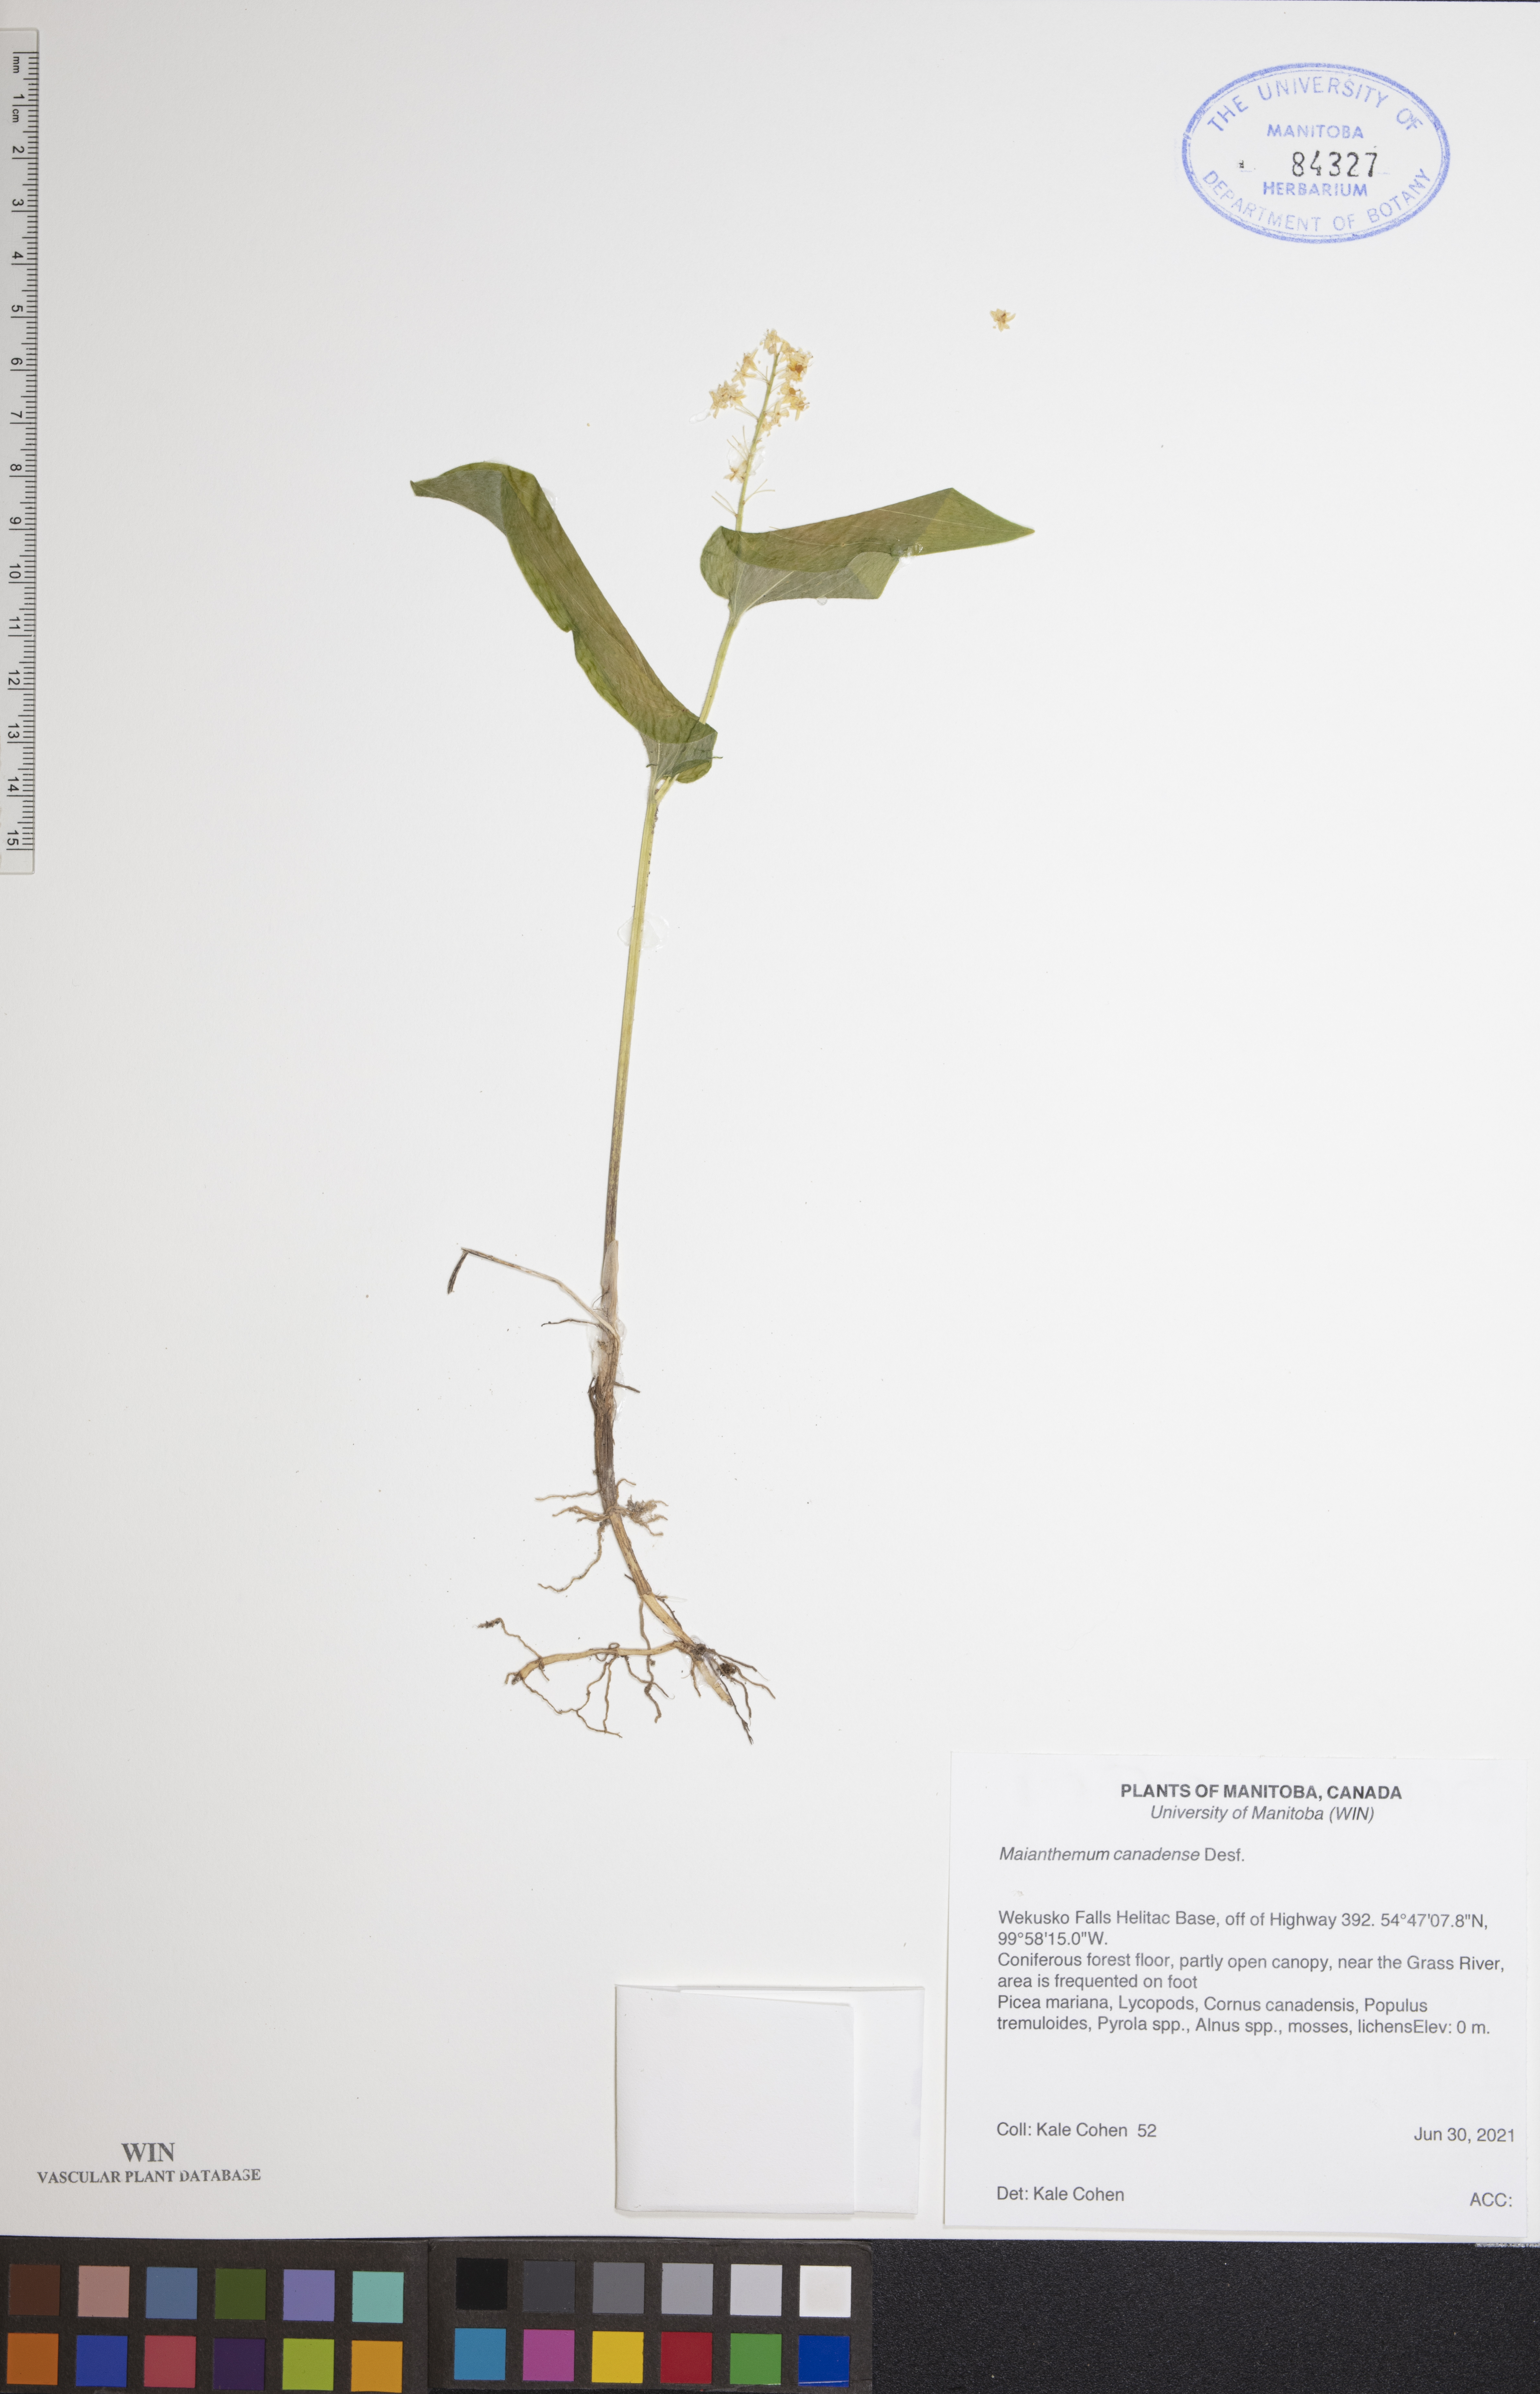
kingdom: Plantae
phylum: Tracheophyta
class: Liliopsida
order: Asparagales
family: Asparagaceae
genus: Maianthemum
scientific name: Maianthemum canadense
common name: False lily-of-the-valley
